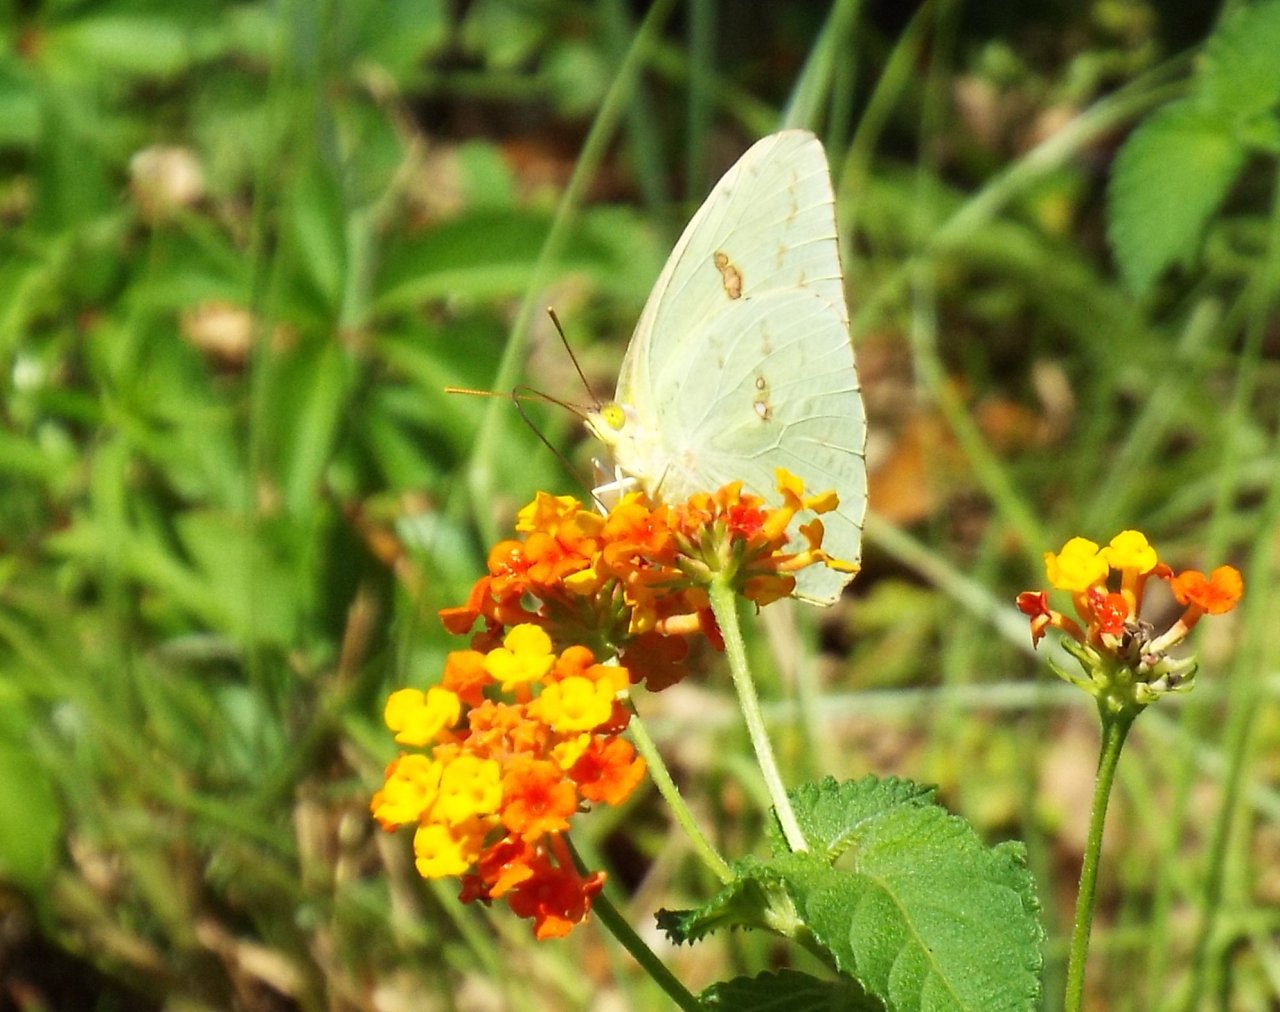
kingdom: Animalia
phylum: Arthropoda
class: Insecta
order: Lepidoptera
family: Pieridae
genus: Phoebis
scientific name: Phoebis sennae
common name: Cloudless Sulphur
